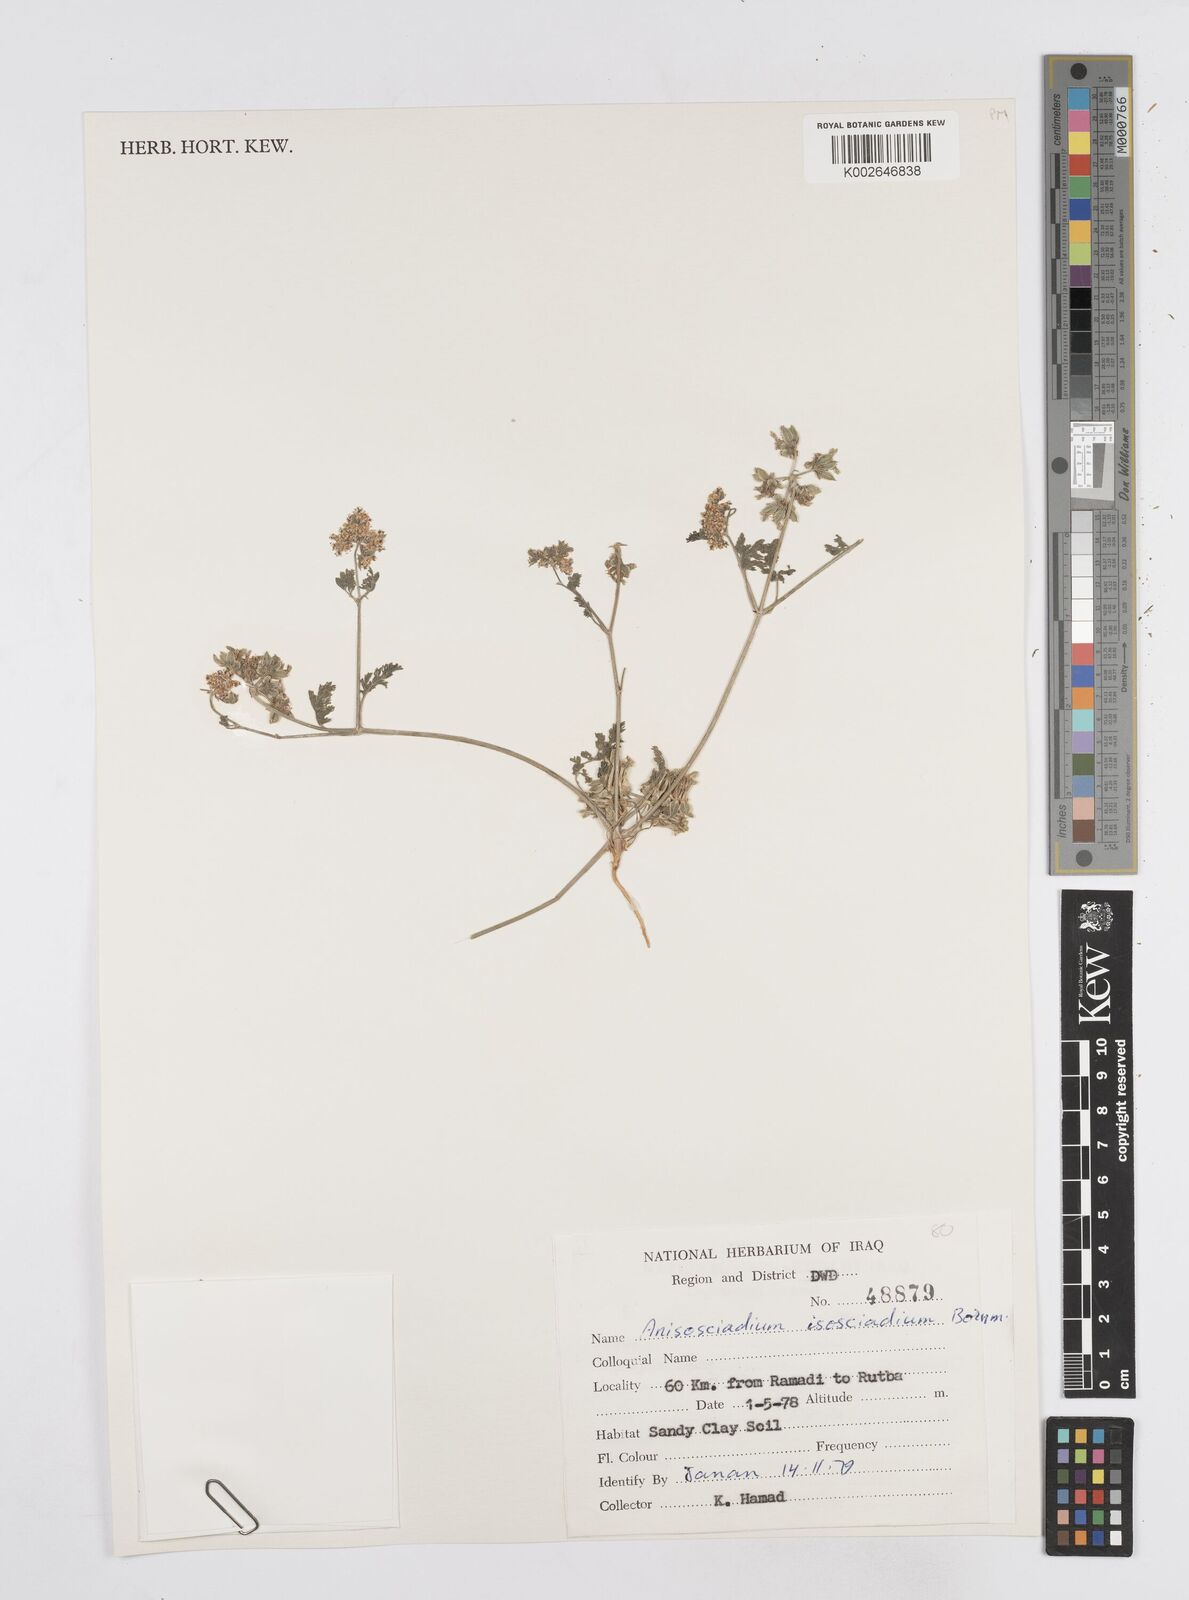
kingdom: Plantae
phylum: Tracheophyta
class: Magnoliopsida
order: Apiales
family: Apiaceae
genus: Anisosciadium
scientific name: Anisosciadium isosciadium
